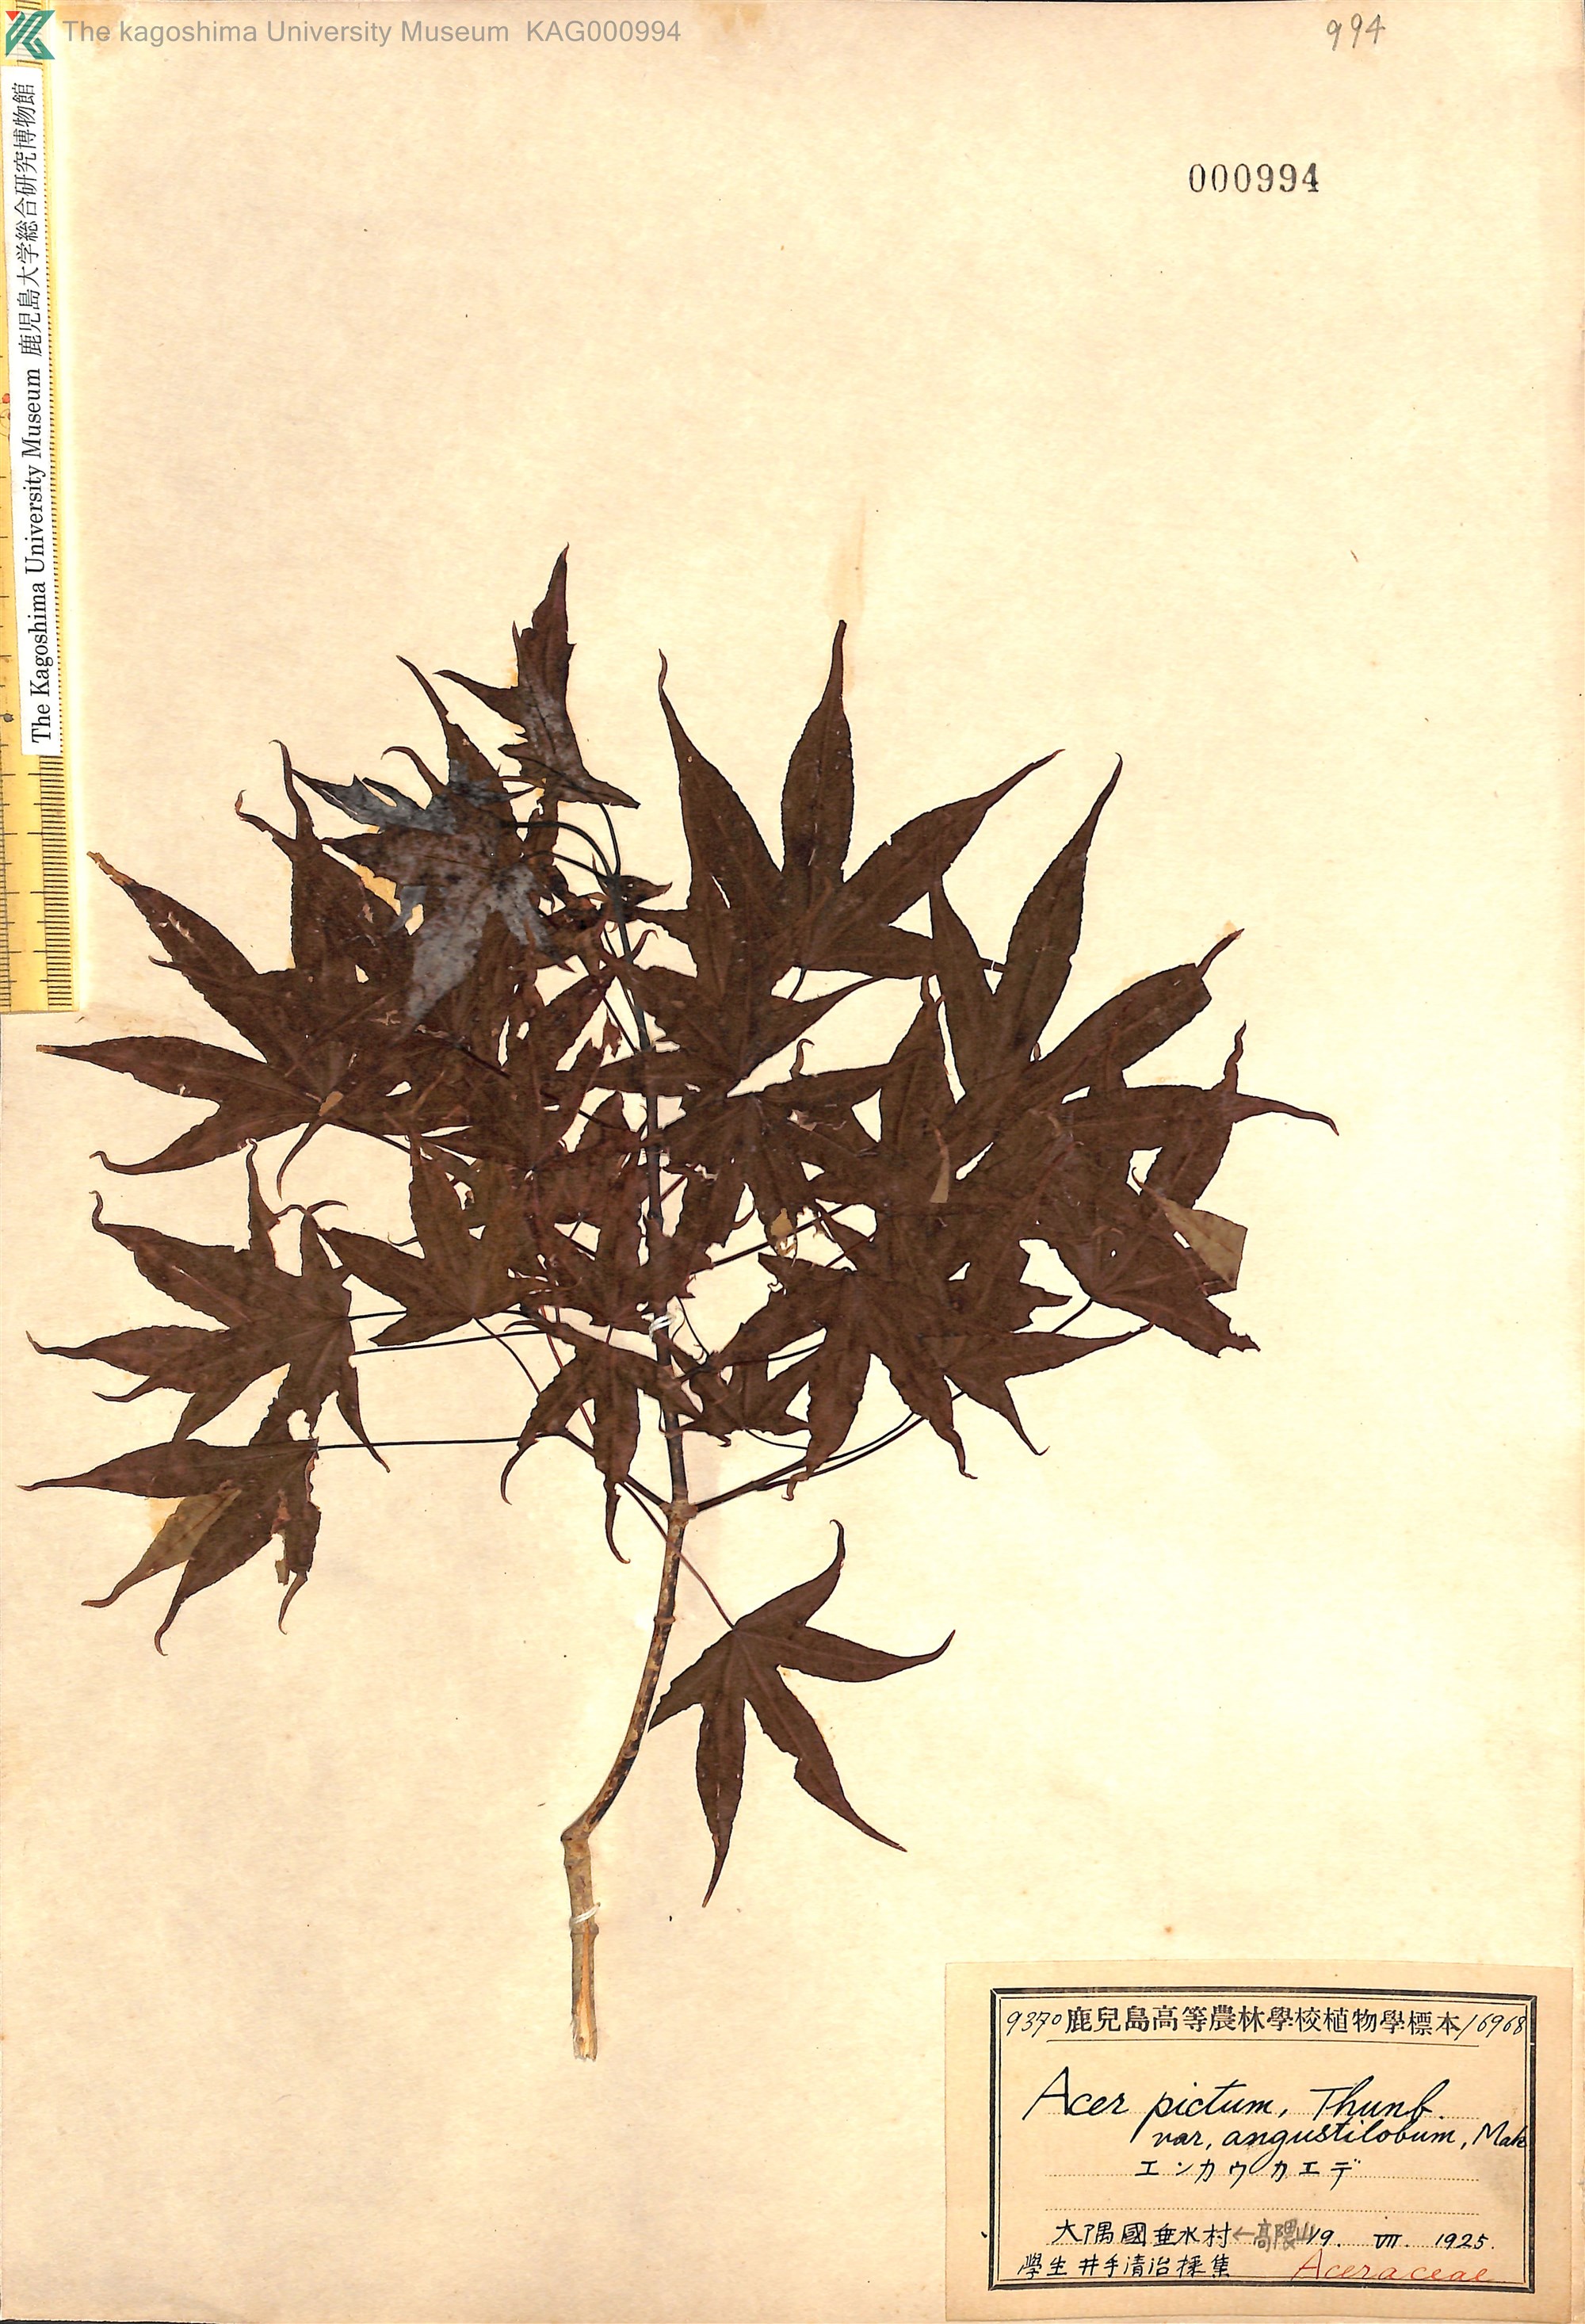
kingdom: Plantae
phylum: Tracheophyta
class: Magnoliopsida
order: Sapindales
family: Sapindaceae
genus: Acer
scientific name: Acer pictum
